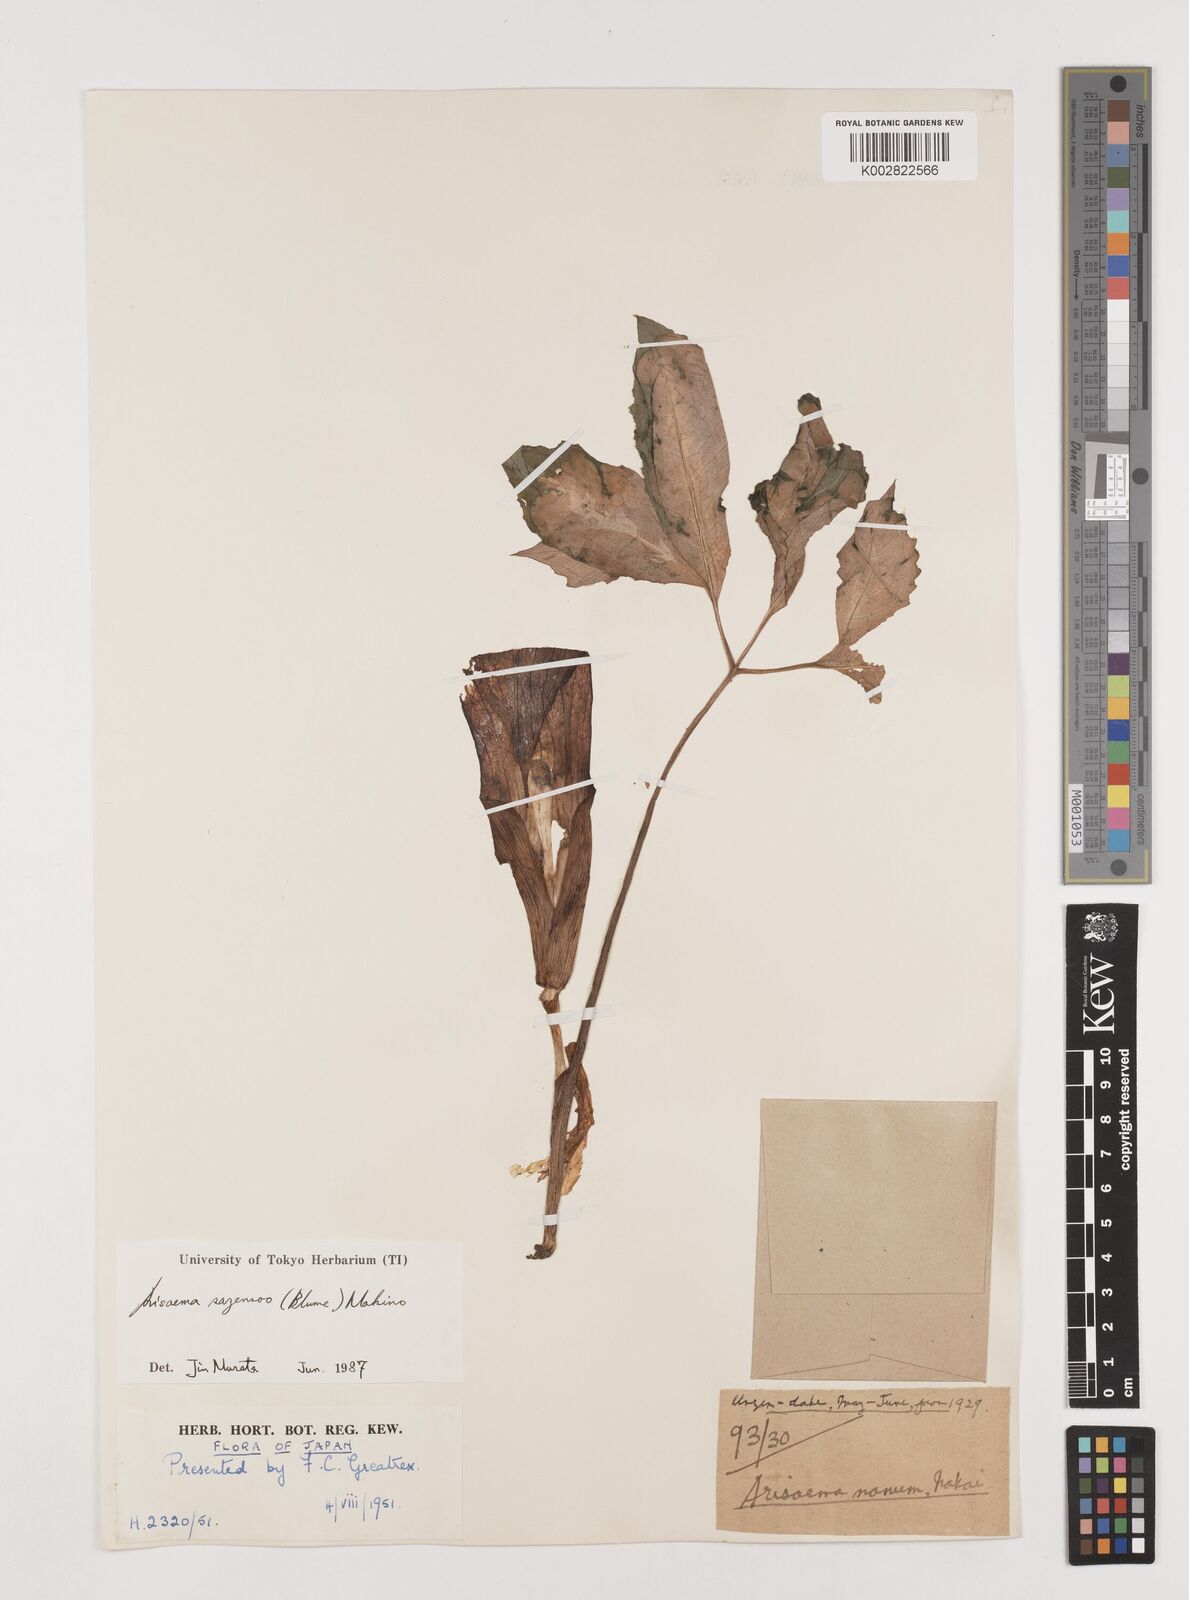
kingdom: Plantae
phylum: Tracheophyta
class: Liliopsida
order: Alismatales
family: Araceae
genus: Arisaema
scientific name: Arisaema sazensoo
